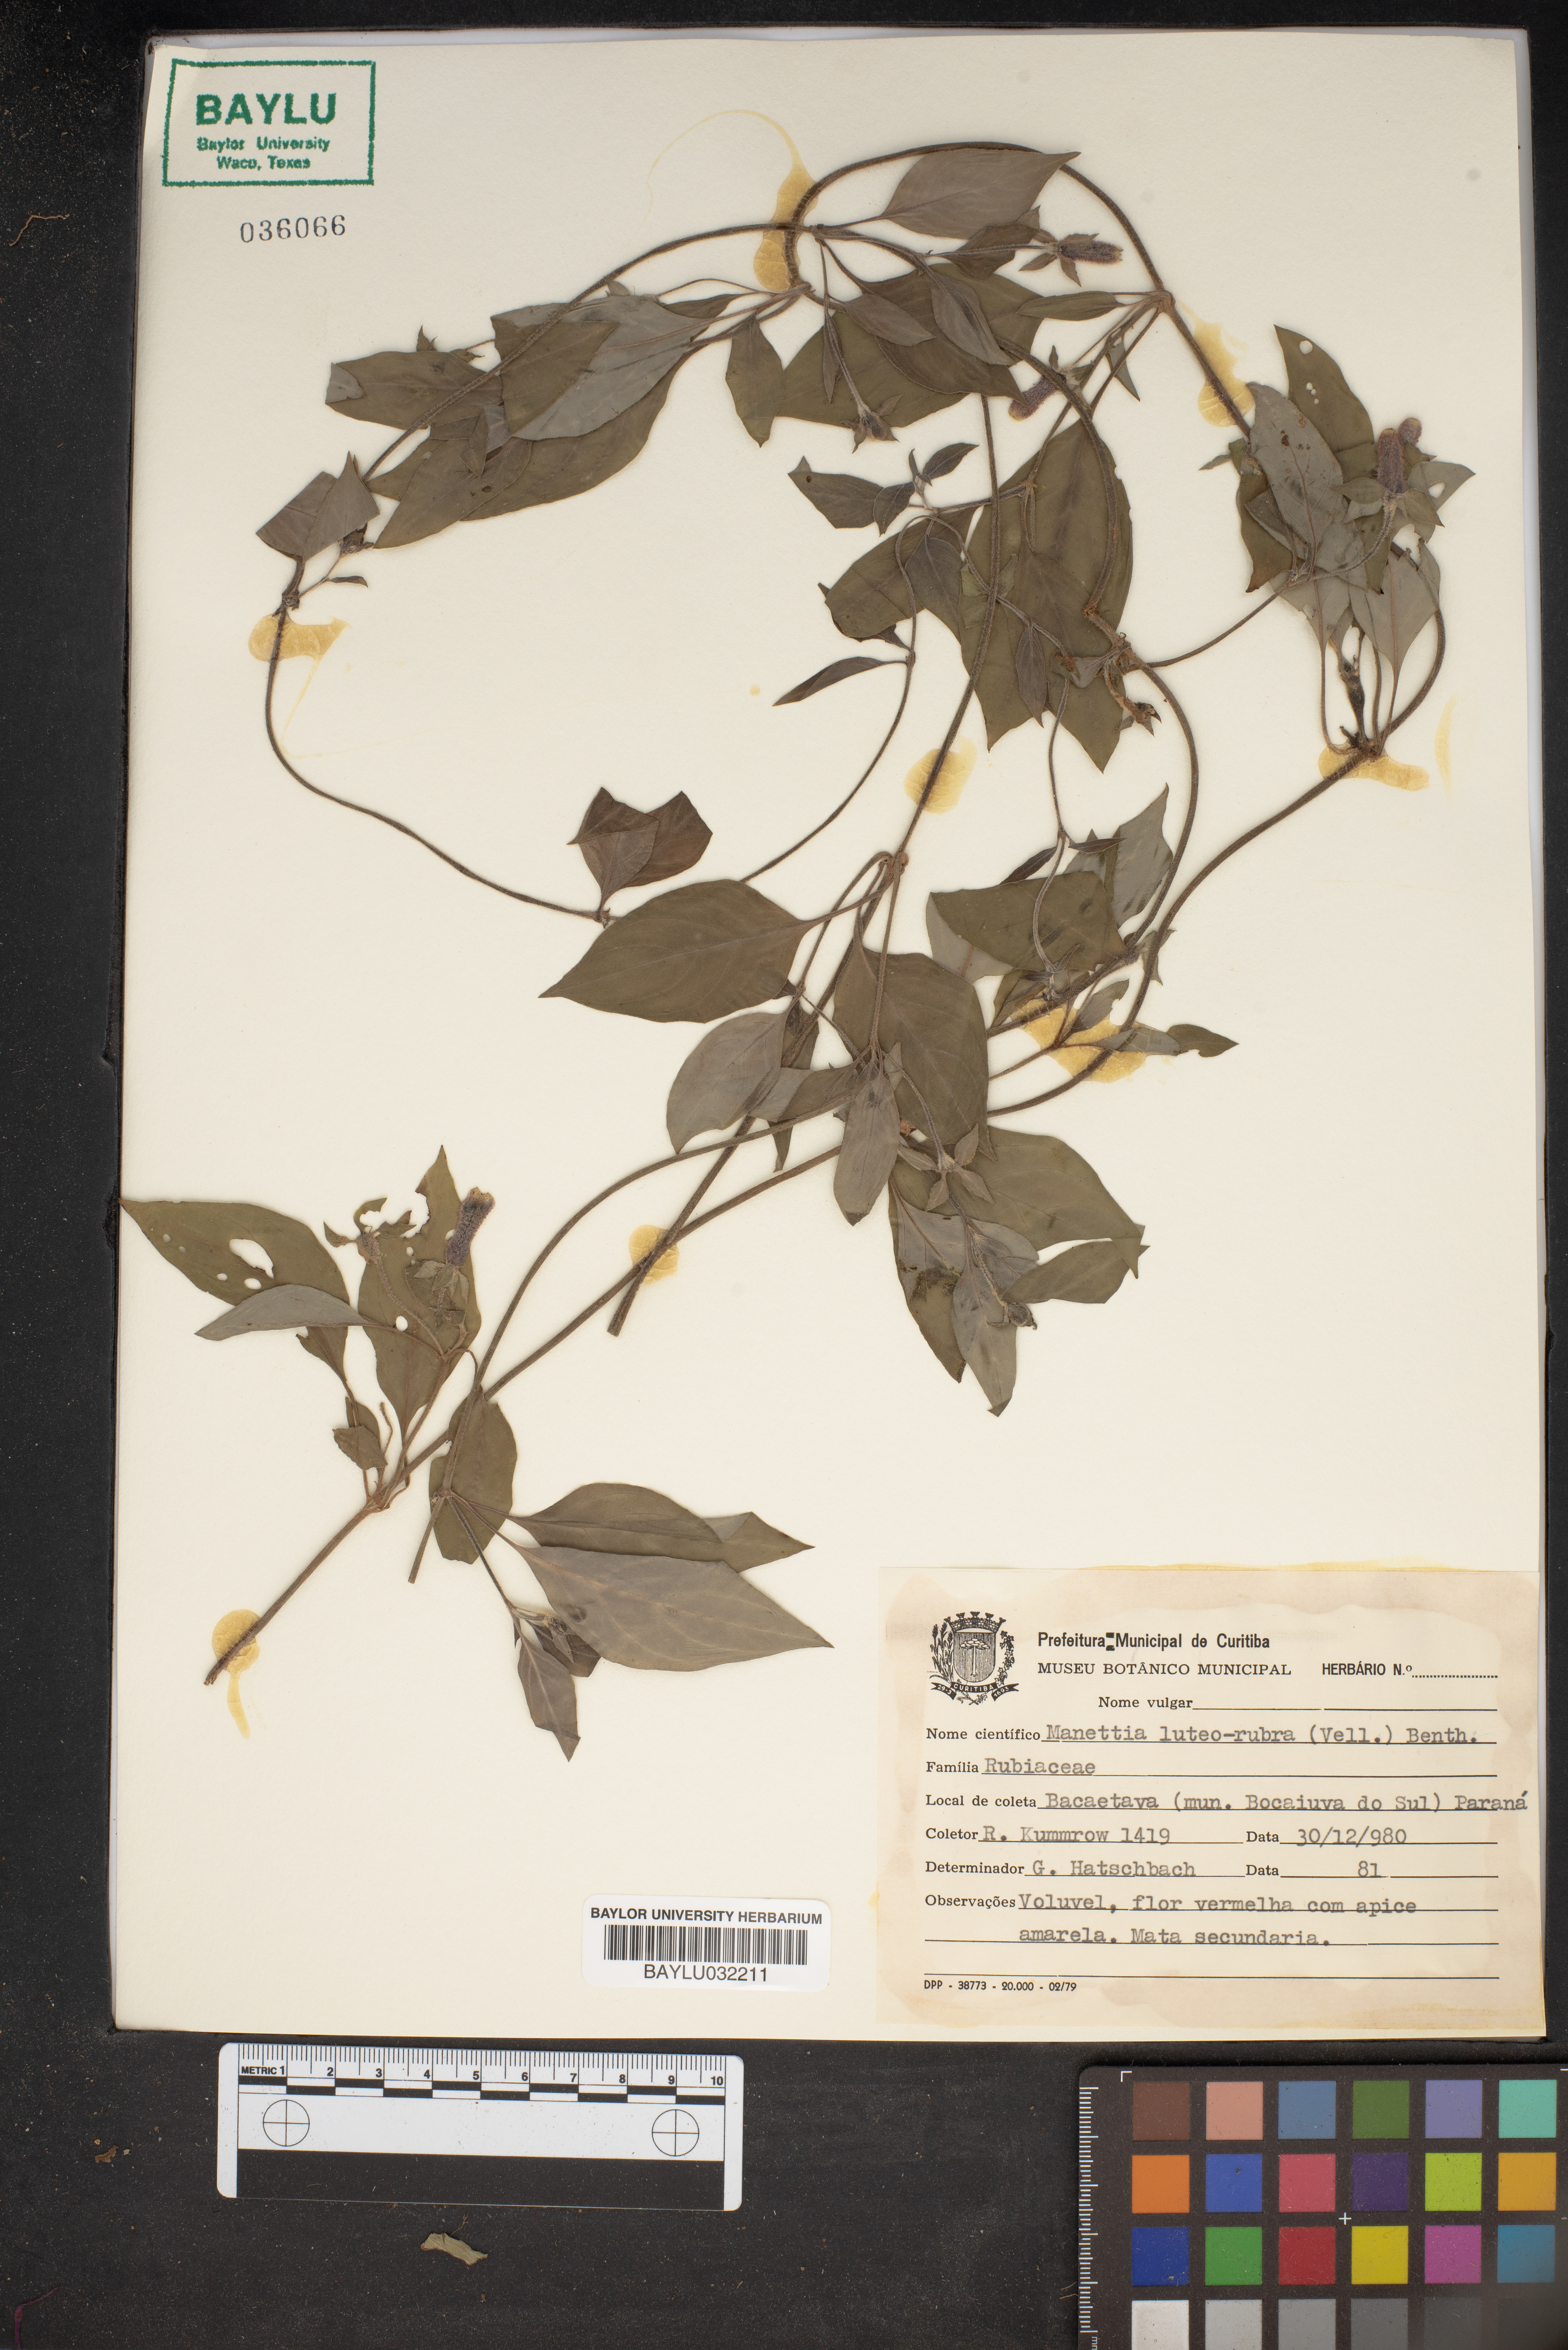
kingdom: Plantae
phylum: Tracheophyta
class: Magnoliopsida
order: Gentianales
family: Rubiaceae
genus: Manettia
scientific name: Manettia luteorubra
